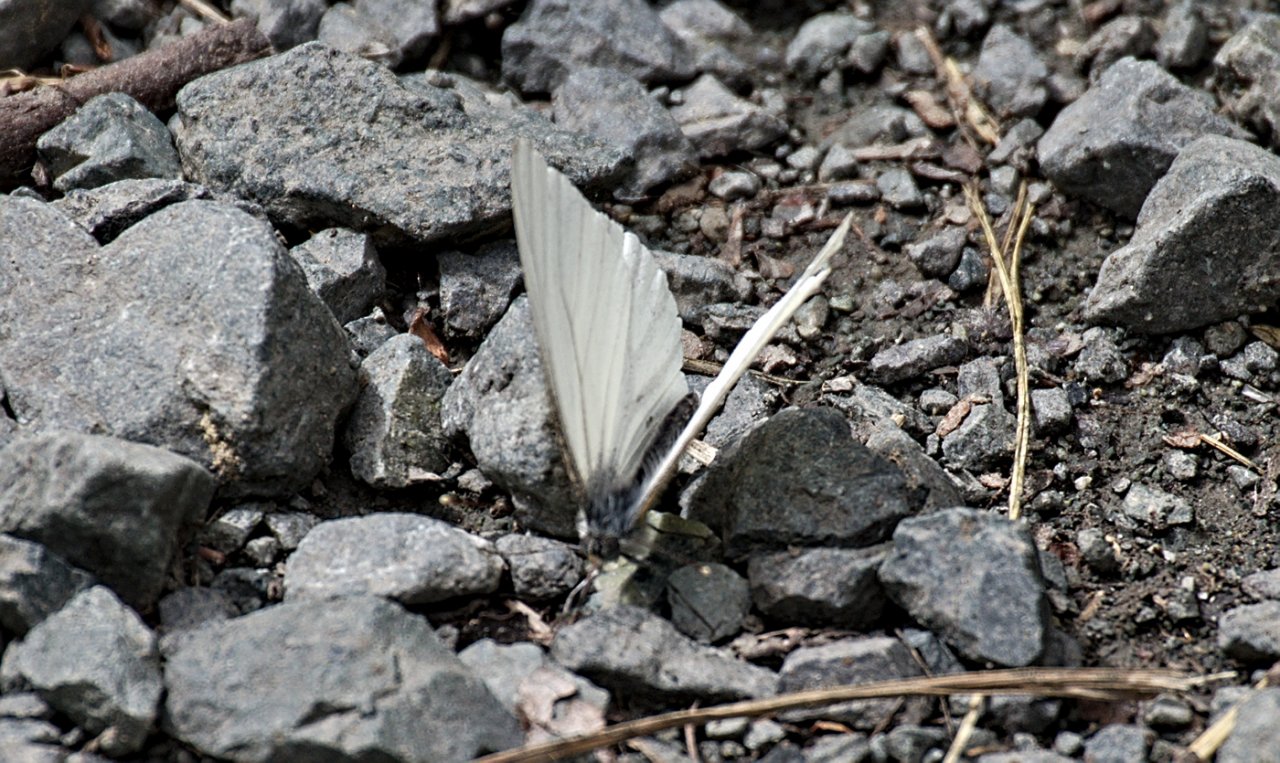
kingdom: Animalia
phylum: Arthropoda
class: Insecta
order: Lepidoptera
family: Pieridae
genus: Pieris
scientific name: Pieris oleracea
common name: Mustard White
